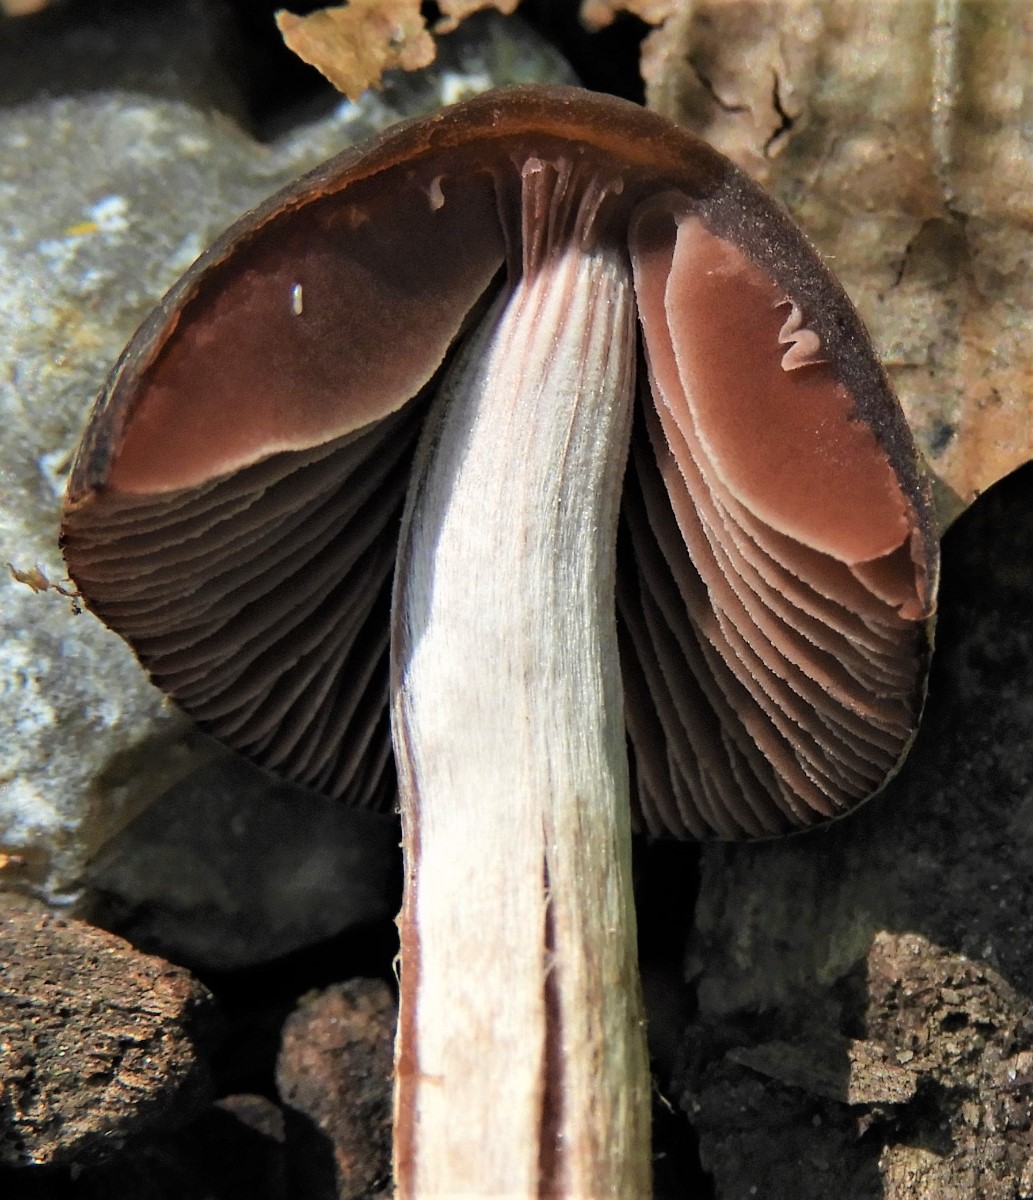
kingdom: Fungi
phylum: Basidiomycota
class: Agaricomycetes
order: Agaricales
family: Psathyrellaceae
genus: Psathyrella
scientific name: Psathyrella bipellis
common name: vinrød mørkhat
